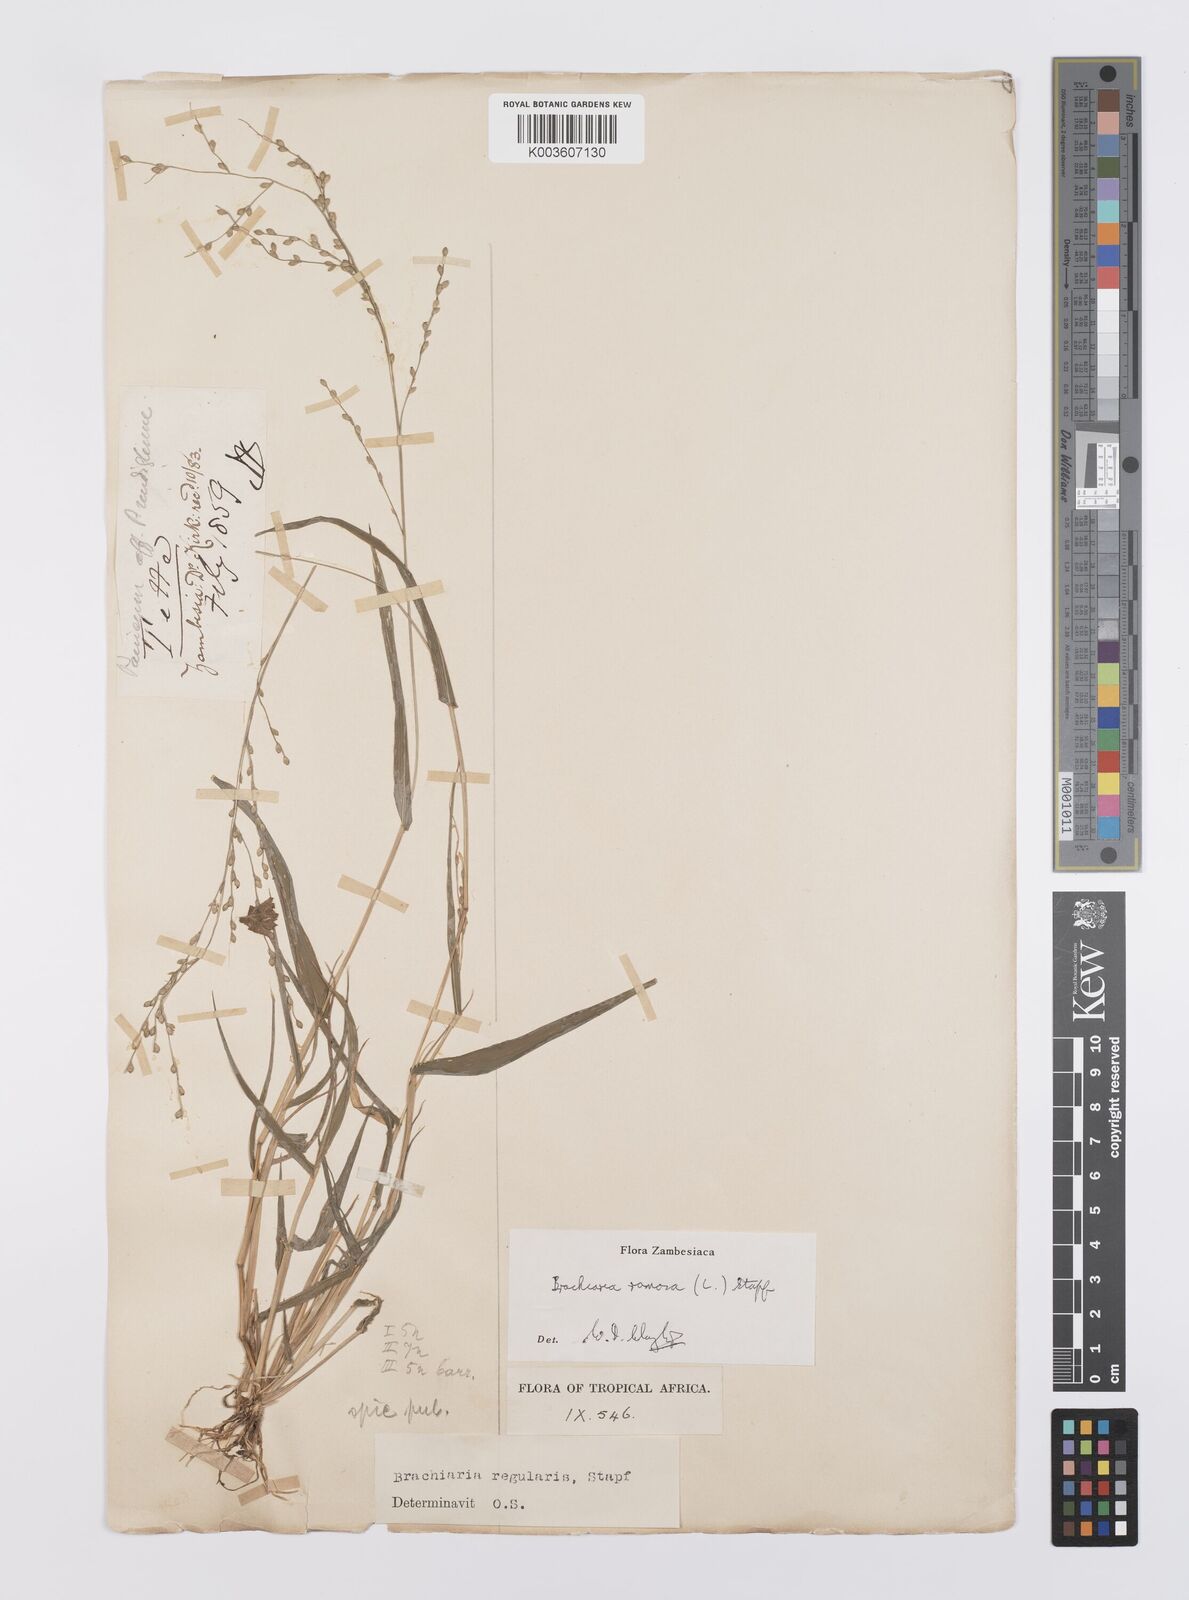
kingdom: Plantae
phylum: Tracheophyta
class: Liliopsida
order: Poales
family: Poaceae
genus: Urochloa
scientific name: Urochloa ramosa
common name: Browntop millet
